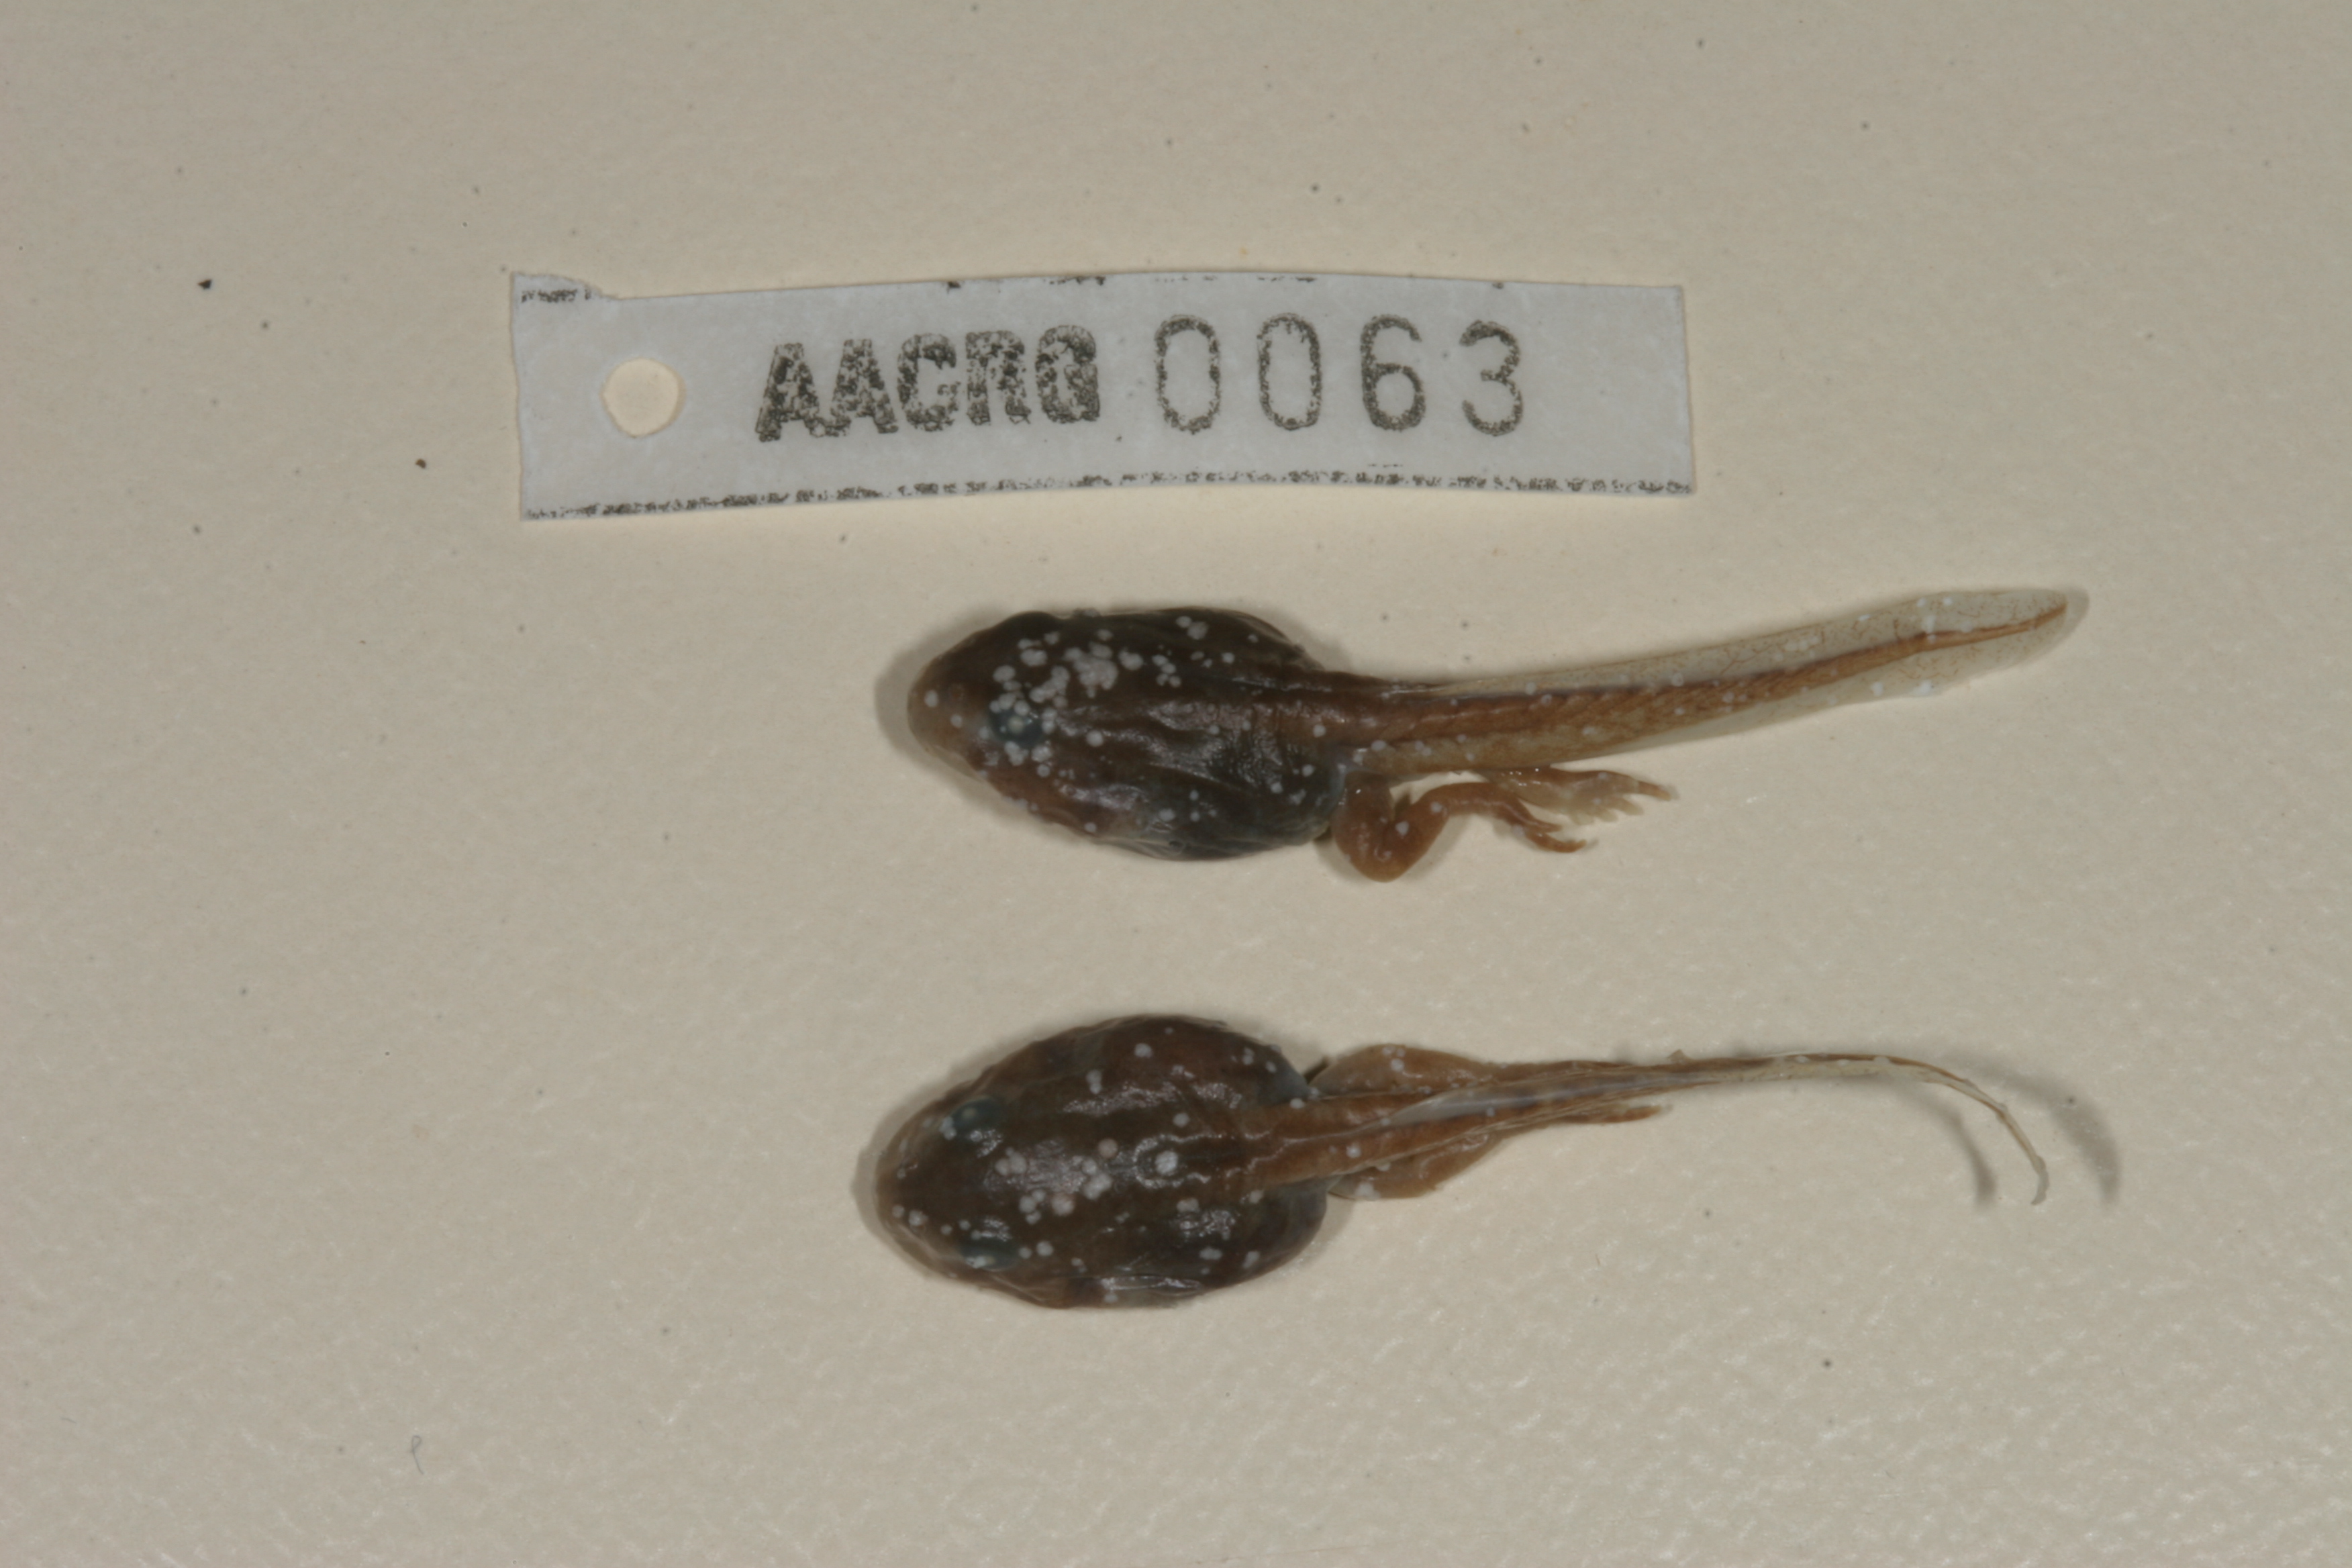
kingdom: Animalia
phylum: Chordata
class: Amphibia
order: Anura
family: Bufonidae
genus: Sclerophrys
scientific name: Sclerophrys poweri
